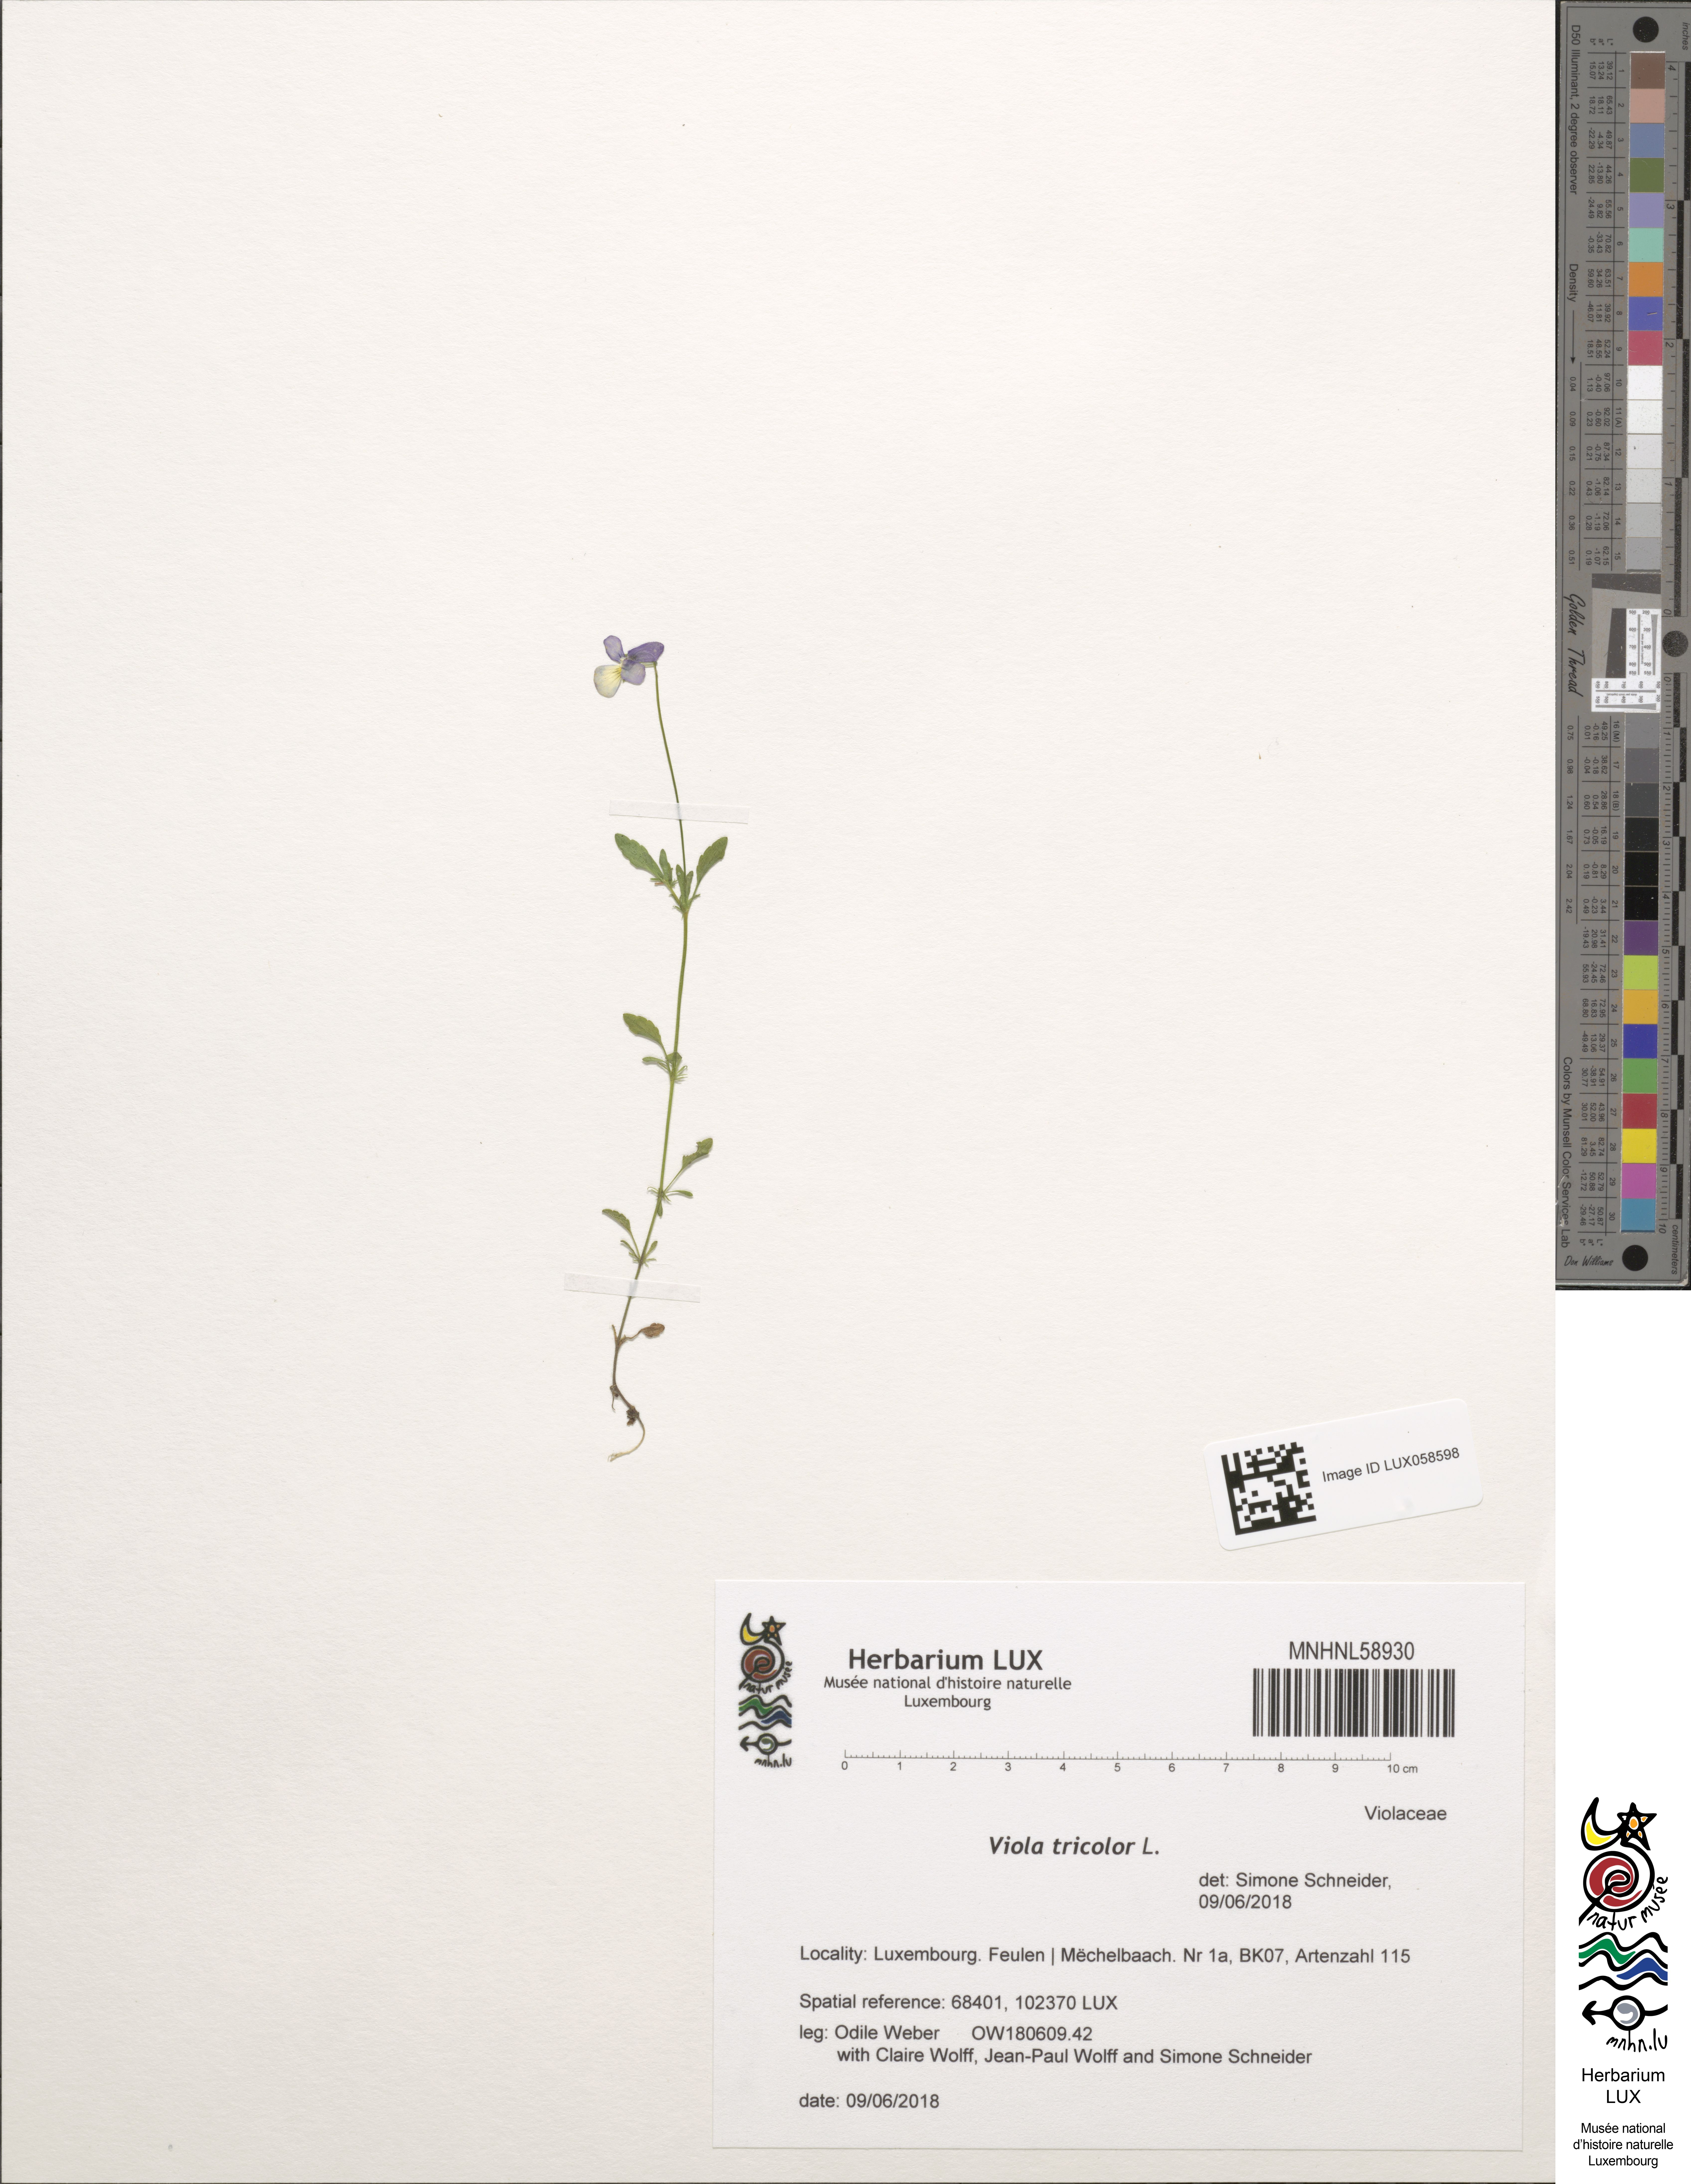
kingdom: Plantae
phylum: Tracheophyta
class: Magnoliopsida
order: Malpighiales
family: Violaceae
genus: Viola
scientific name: Viola tricolor
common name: Pansy
